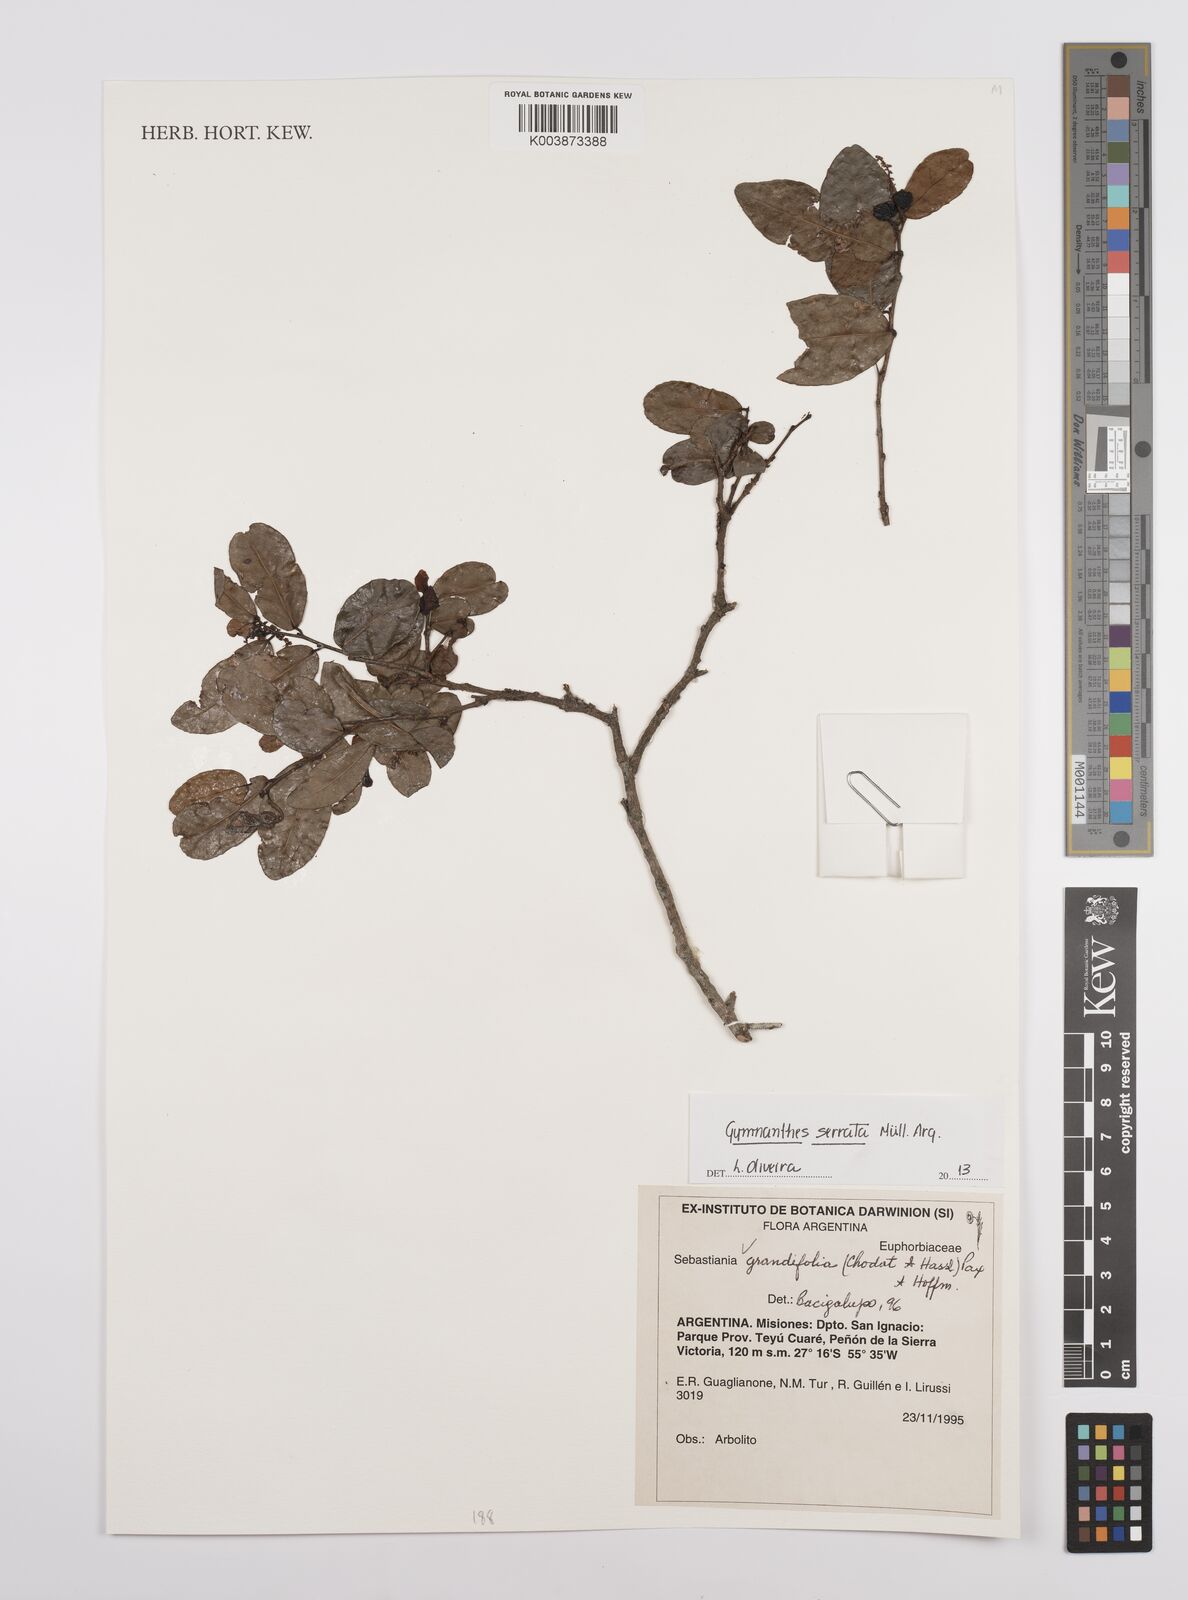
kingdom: Plantae
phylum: Tracheophyta
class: Magnoliopsida
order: Malpighiales
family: Euphorbiaceae
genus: Sebastiania
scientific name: Sebastiania serrata
